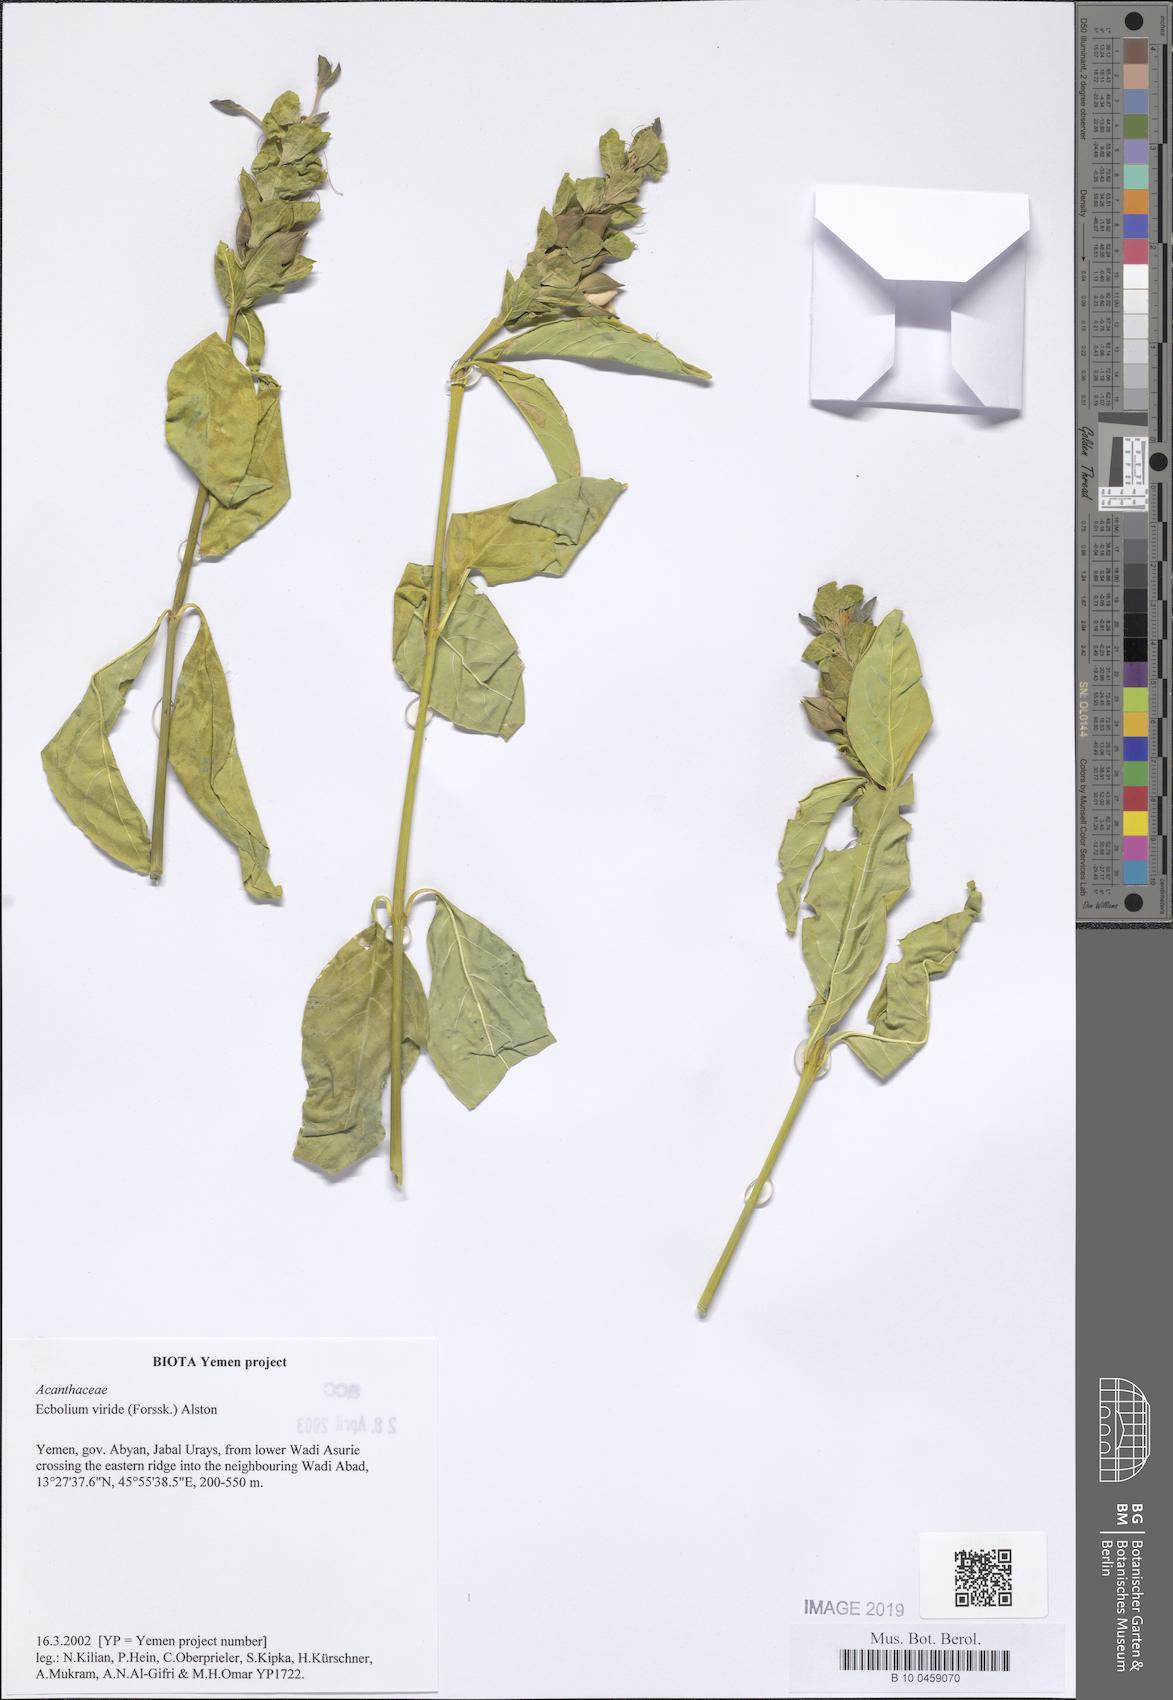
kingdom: Plantae
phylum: Tracheophyta
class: Magnoliopsida
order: Lamiales
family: Acanthaceae
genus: Ecbolium
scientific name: Ecbolium viride
